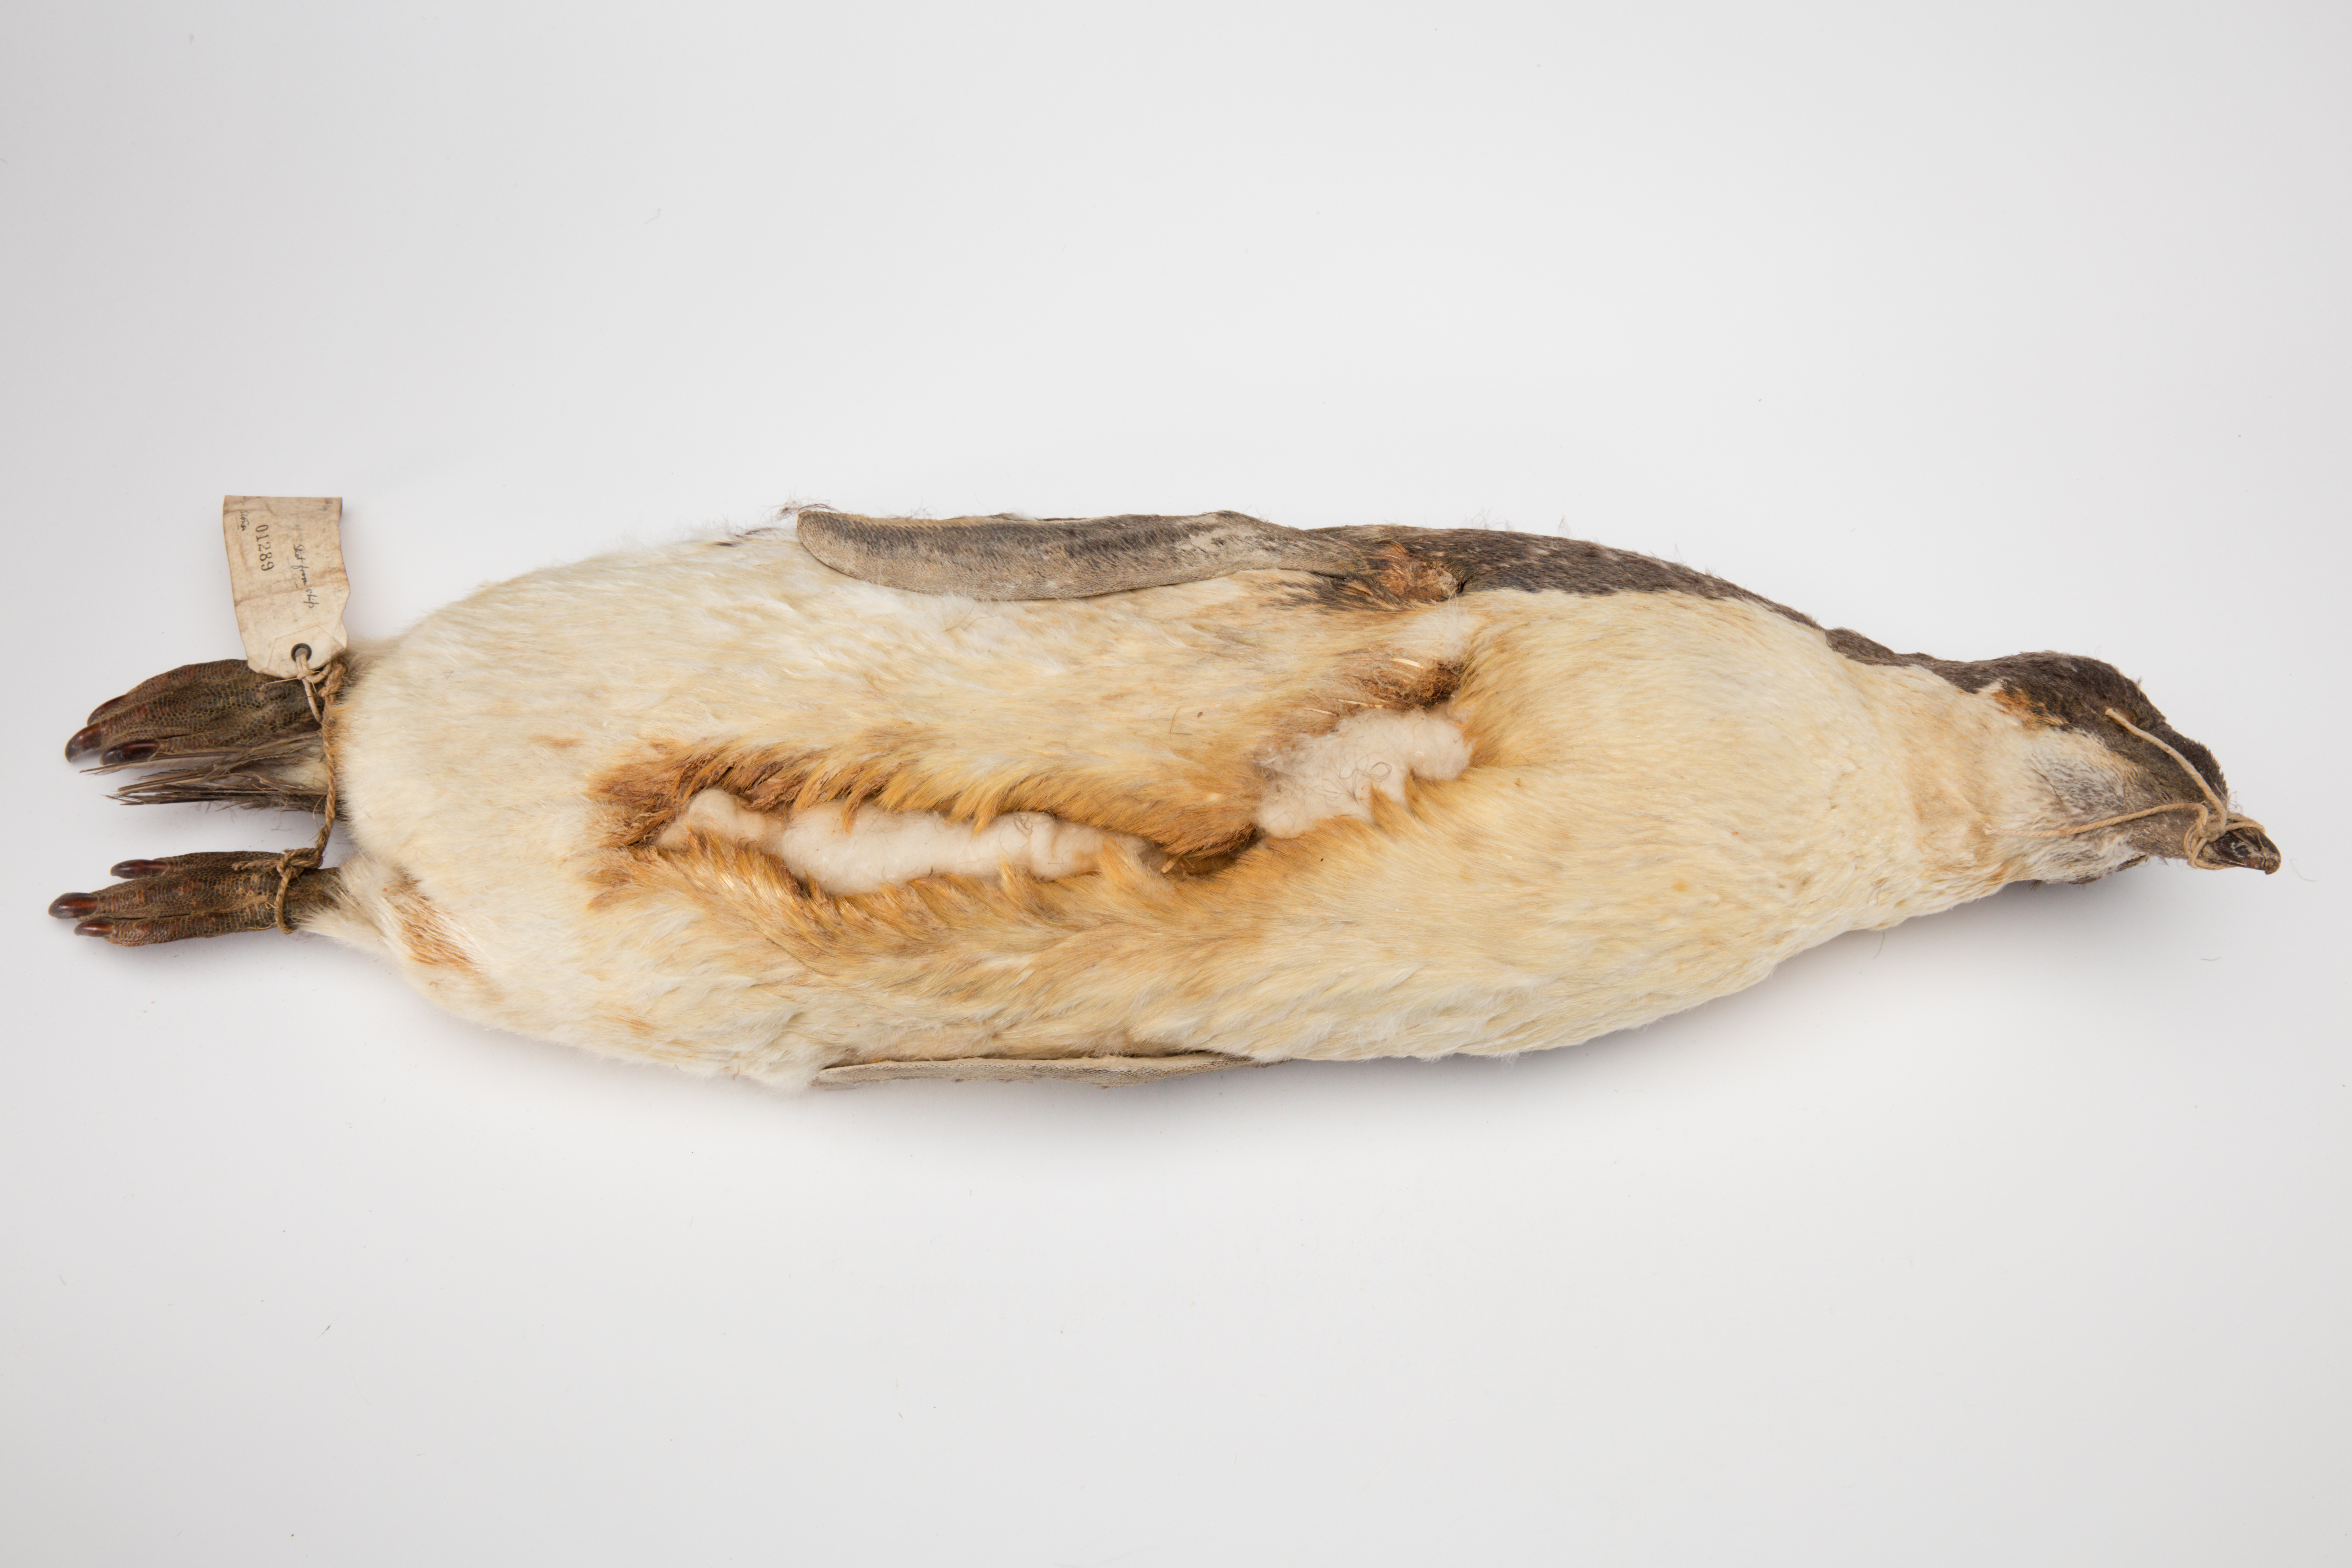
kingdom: Animalia
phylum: Chordata
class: Aves
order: Sphenisciformes
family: Spheniscidae
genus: Pygoscelis
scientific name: Pygoscelis adeliae
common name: Adelie penguin
